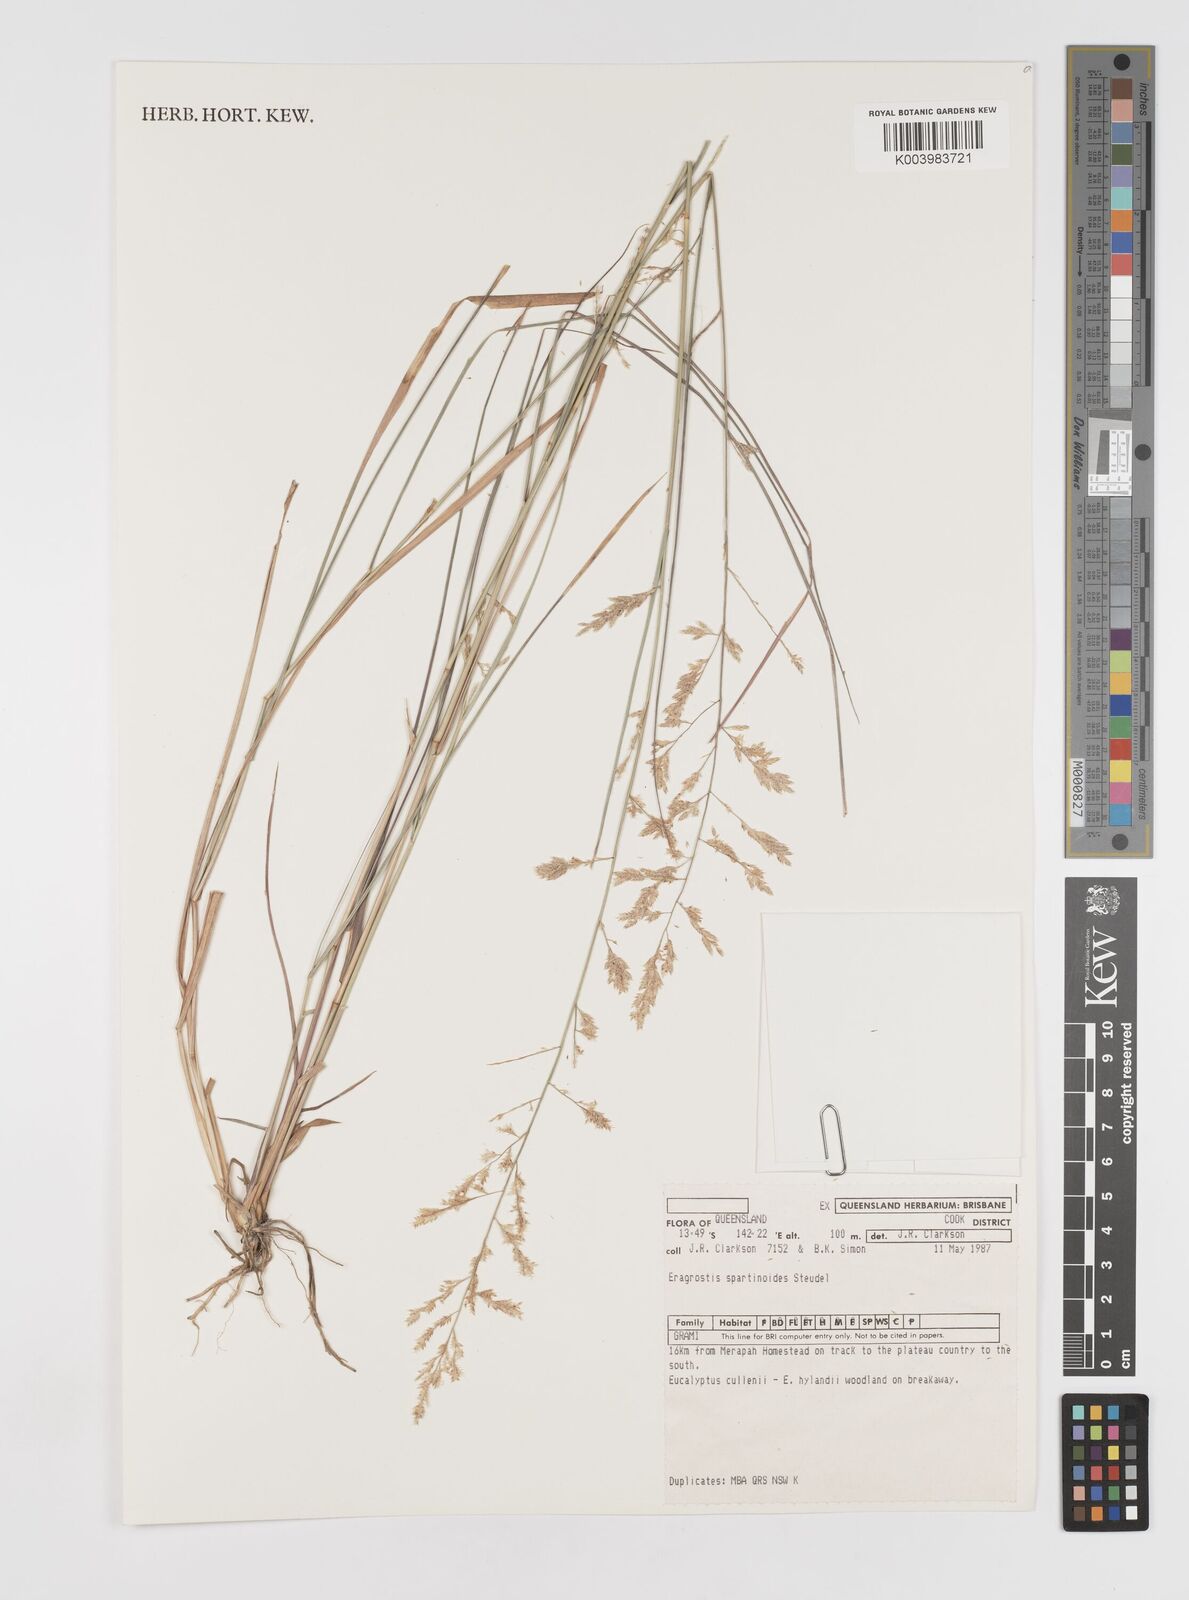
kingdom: Plantae
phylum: Tracheophyta
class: Liliopsida
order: Poales
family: Poaceae
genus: Eragrostis
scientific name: Eragrostis brownii
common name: Lovegrass
